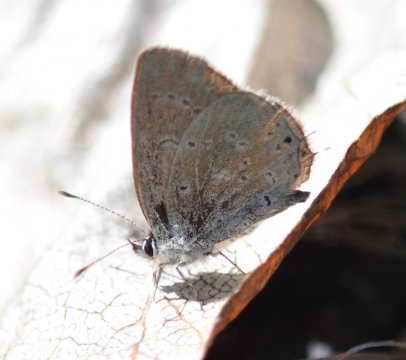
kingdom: Animalia
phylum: Arthropoda
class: Insecta
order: Lepidoptera
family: Lycaenidae
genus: Elkalyce
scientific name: Elkalyce amyntula
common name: Western Tailed-Blue
